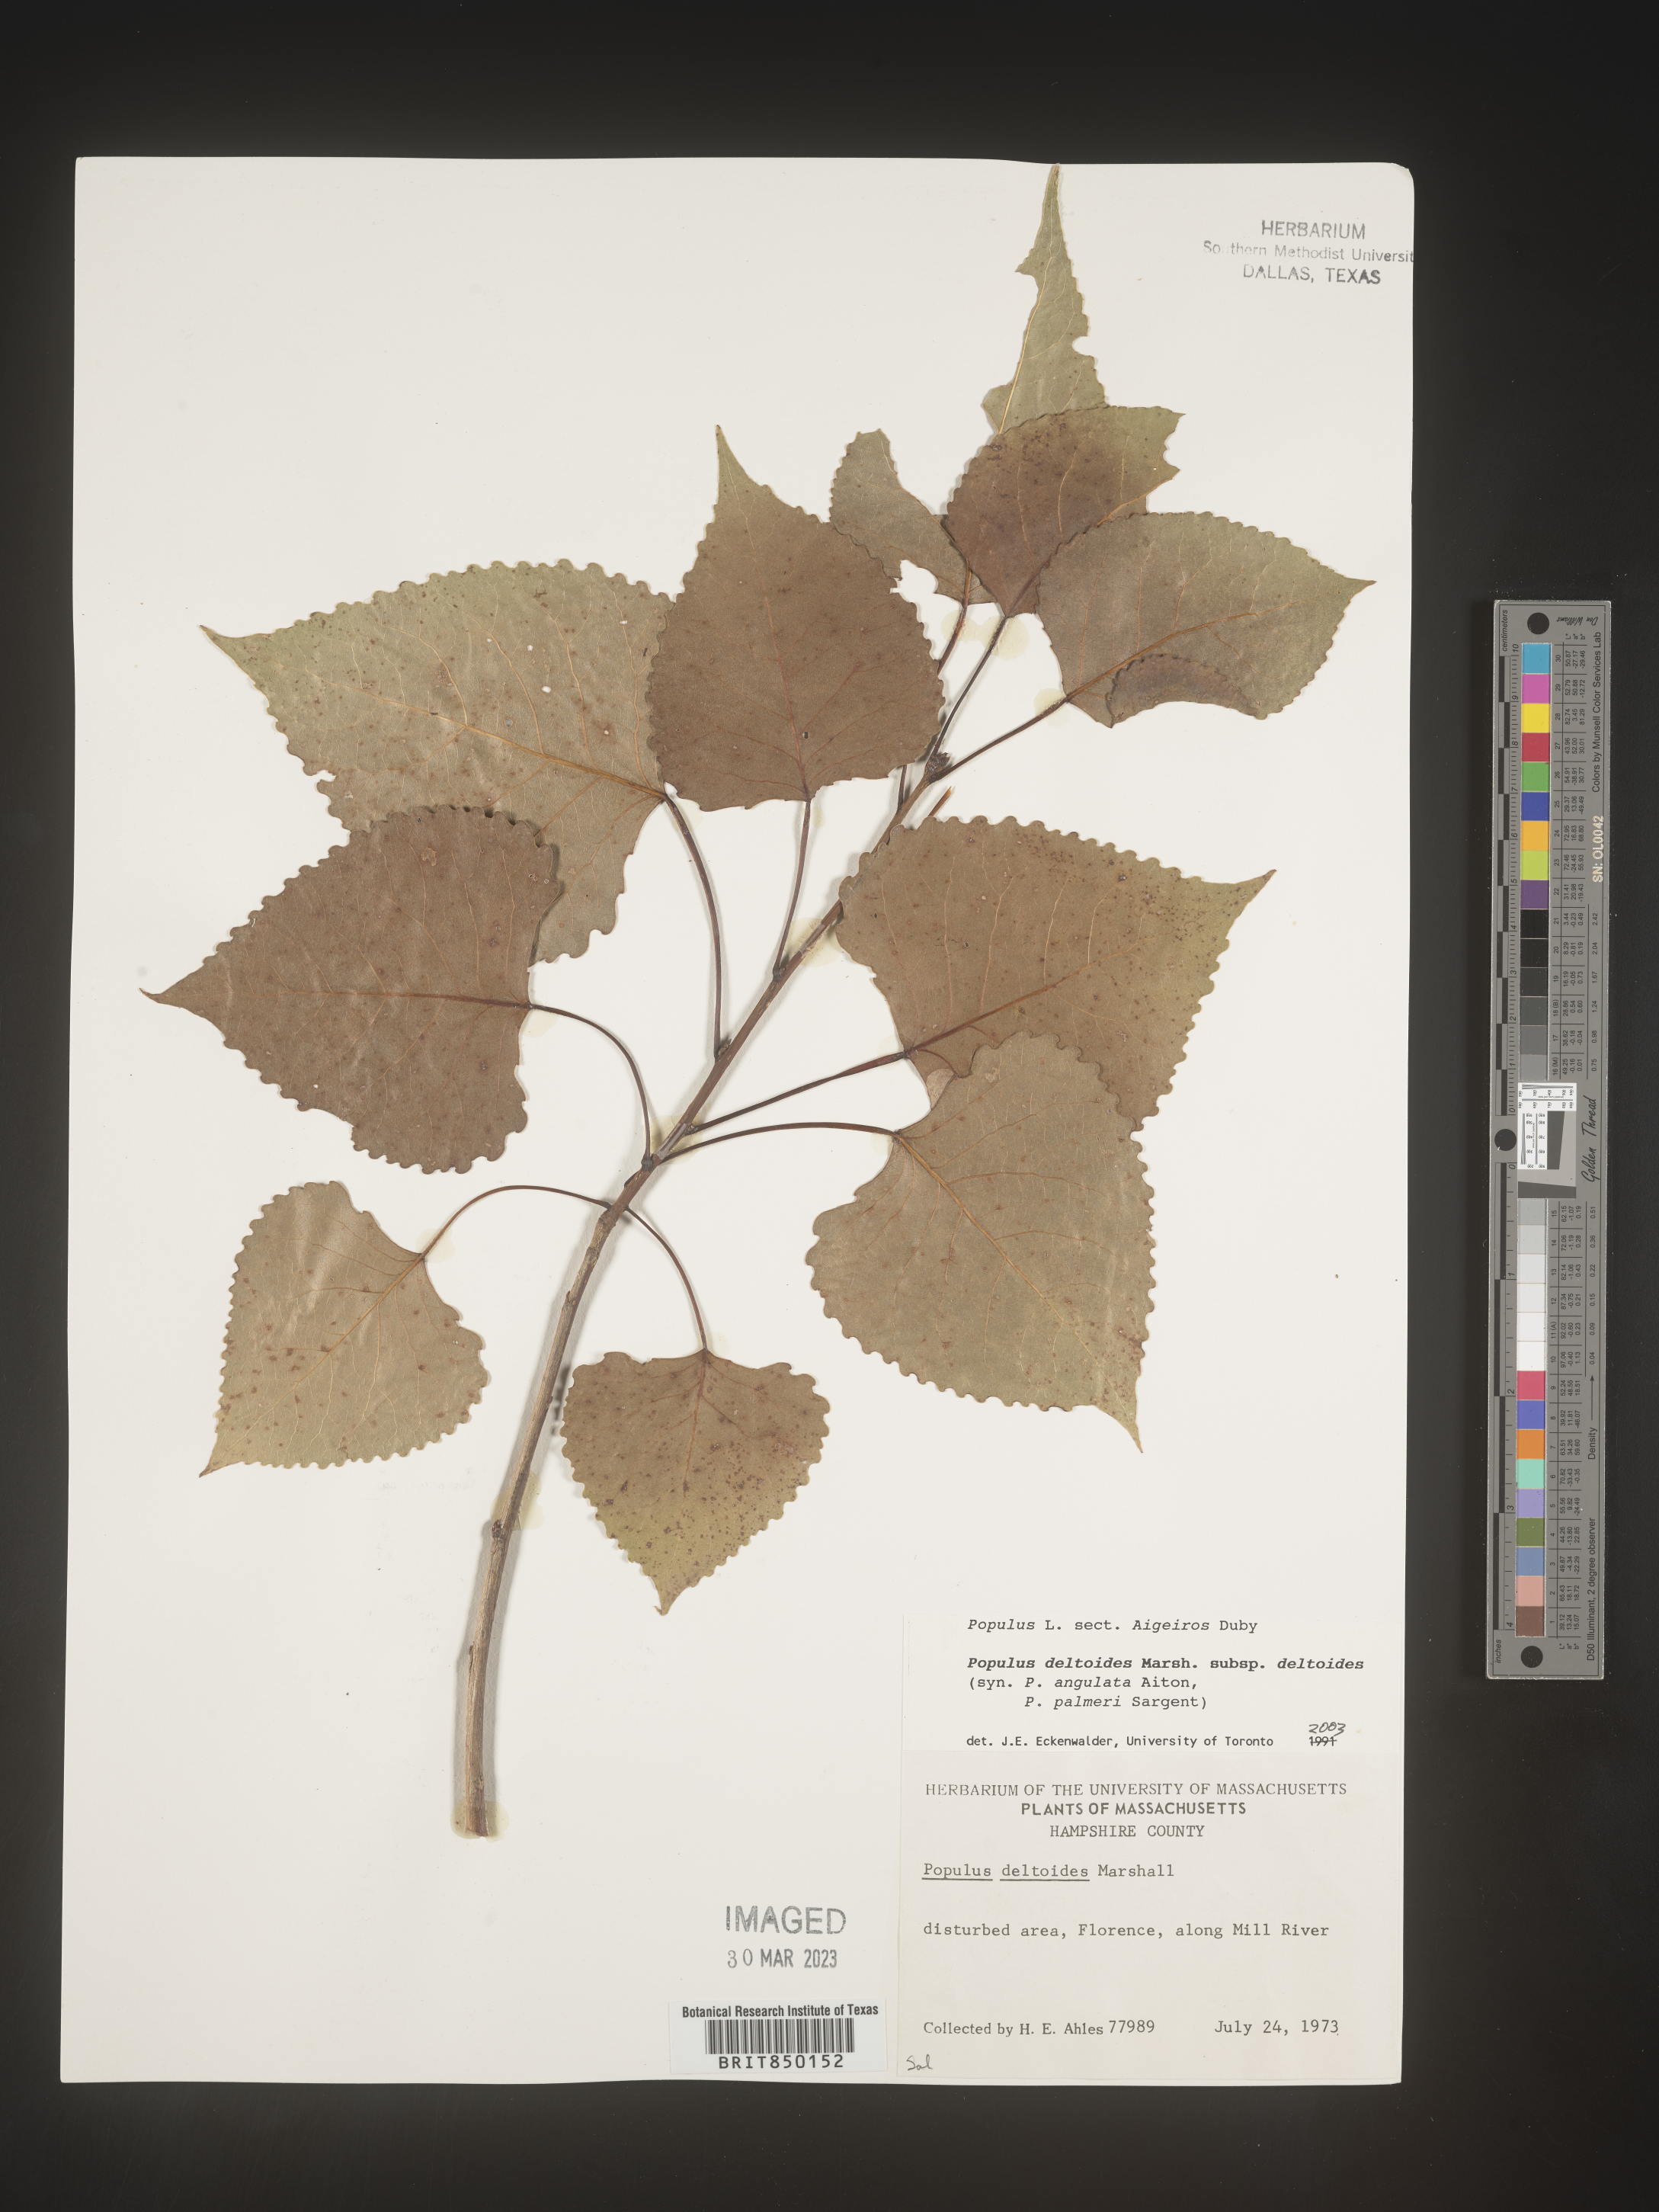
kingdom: Plantae
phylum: Tracheophyta
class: Magnoliopsida
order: Malpighiales
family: Salicaceae
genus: Populus
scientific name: Populus deltoides
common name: Eastern cottonwood
